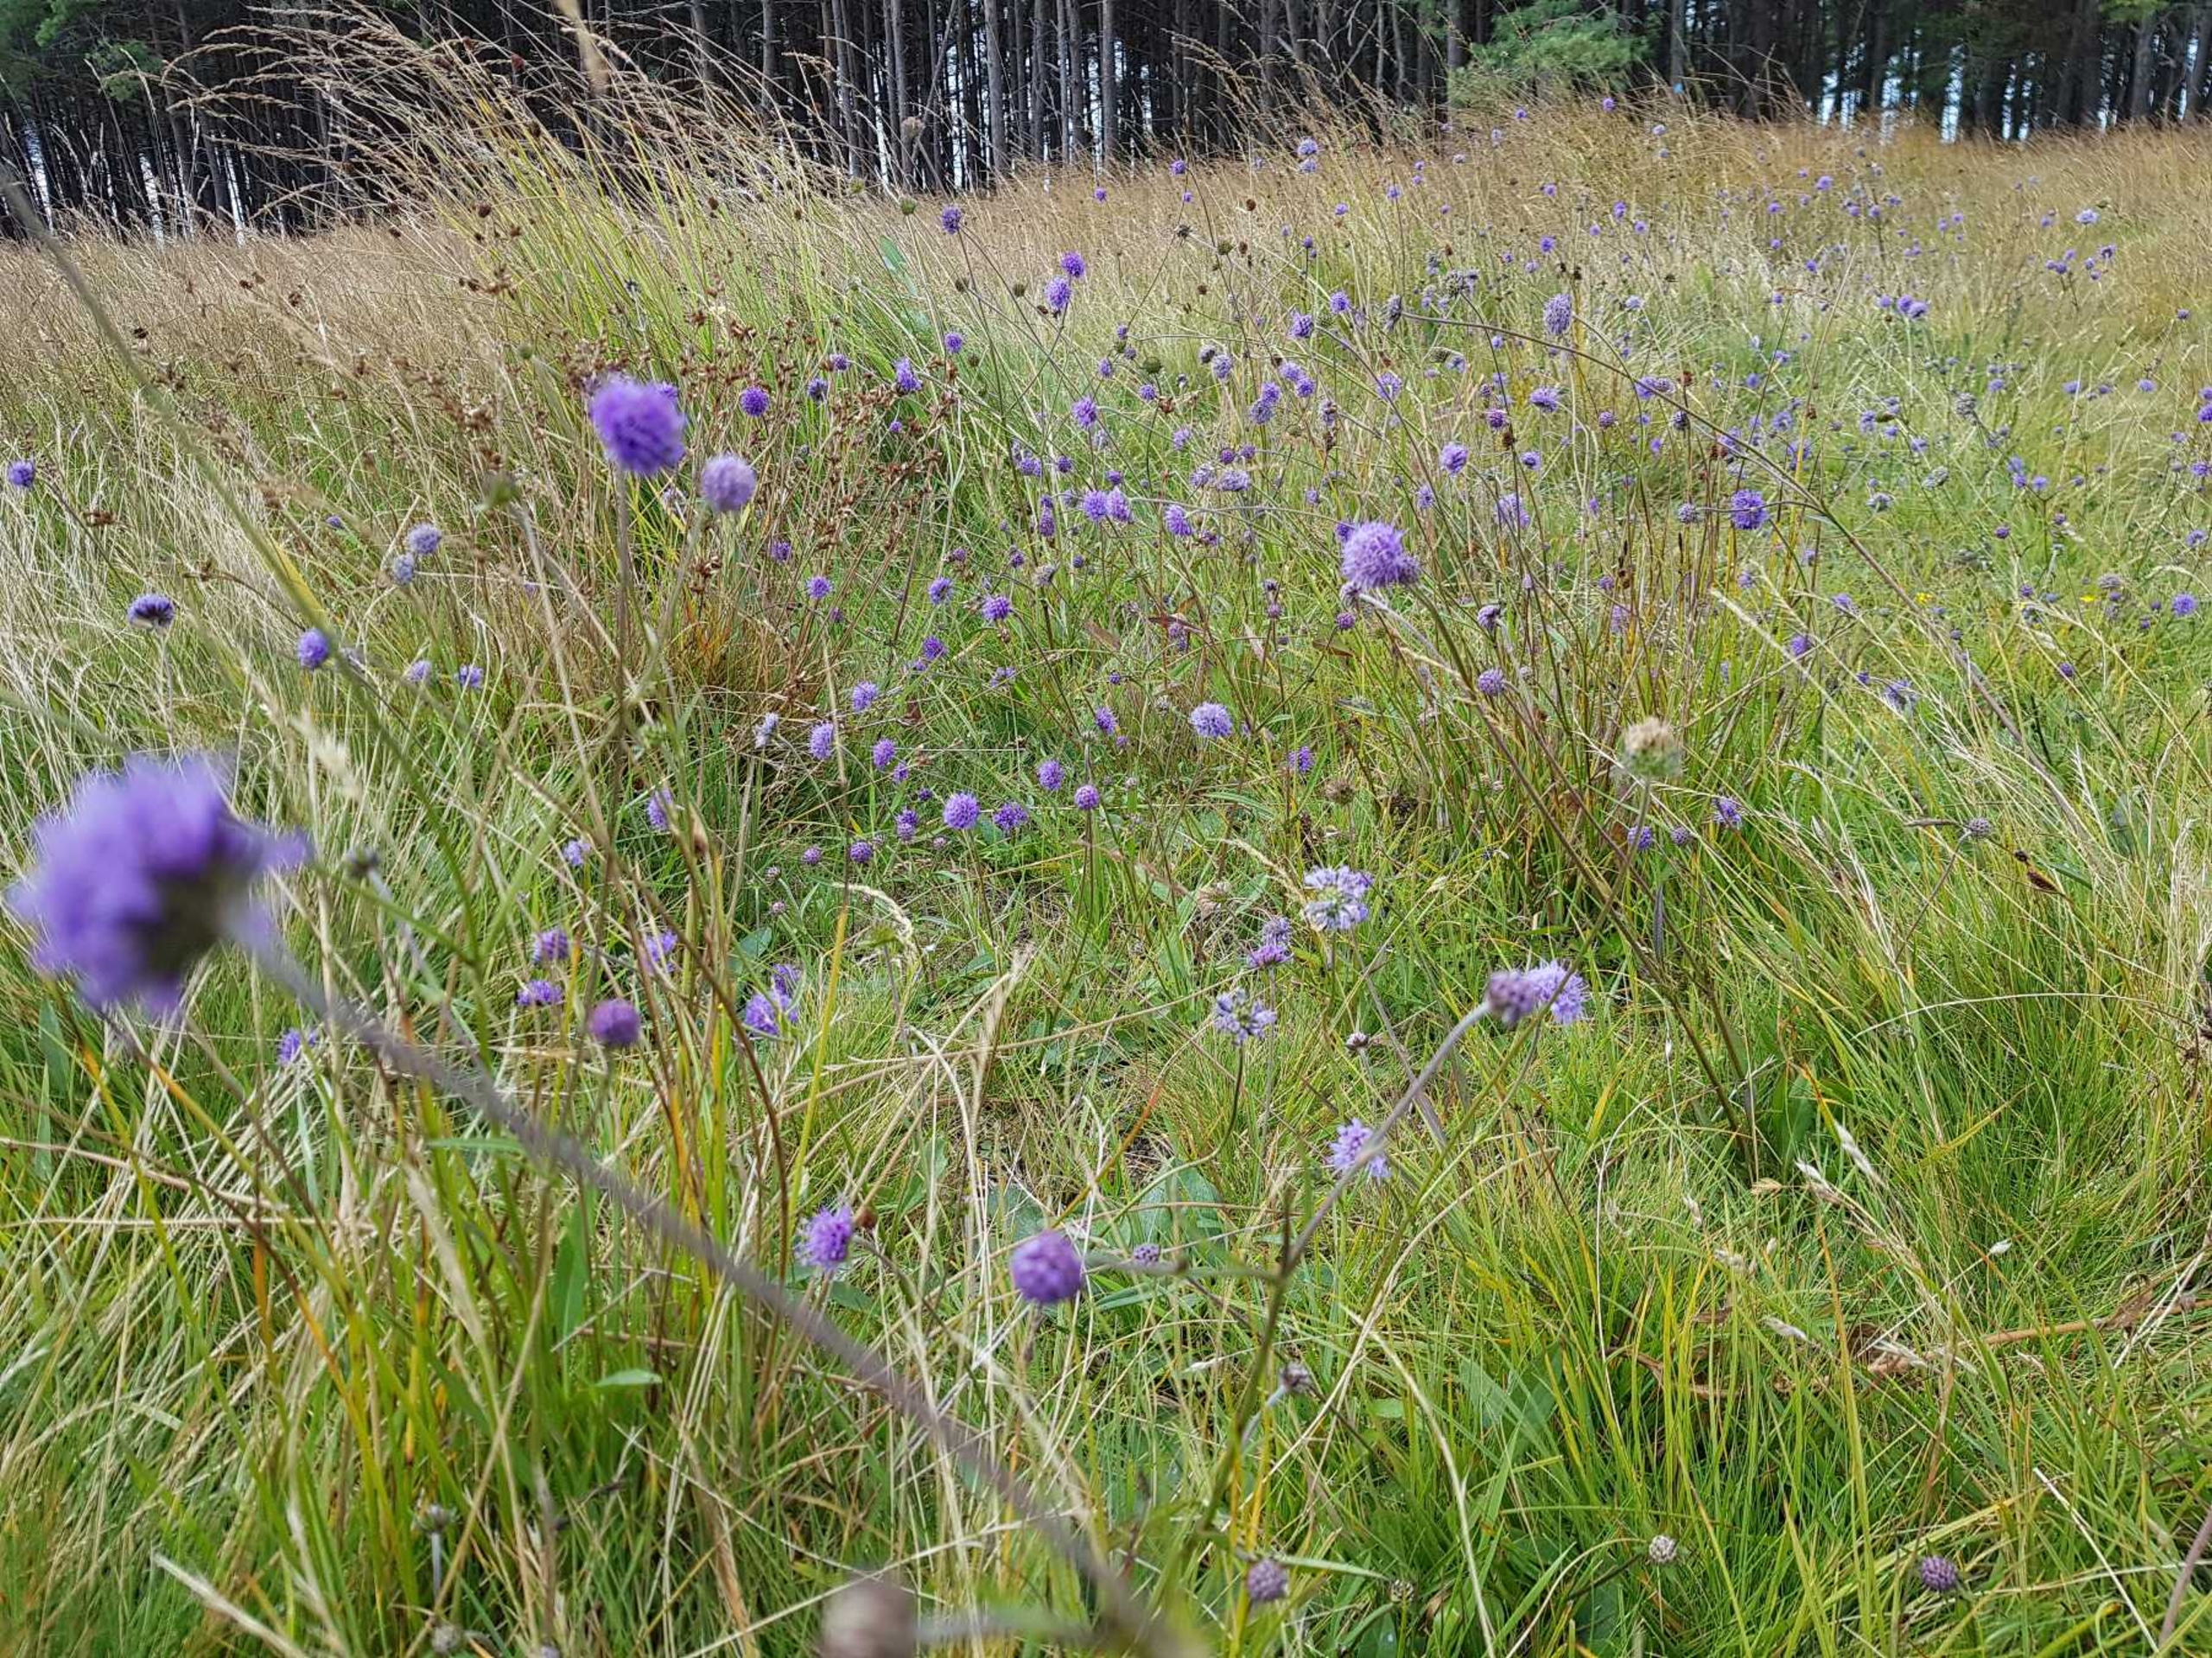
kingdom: Plantae
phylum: Tracheophyta
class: Magnoliopsida
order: Dipsacales
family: Caprifoliaceae
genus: Succisa
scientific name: Succisa pratensis
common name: Djævelsbid
